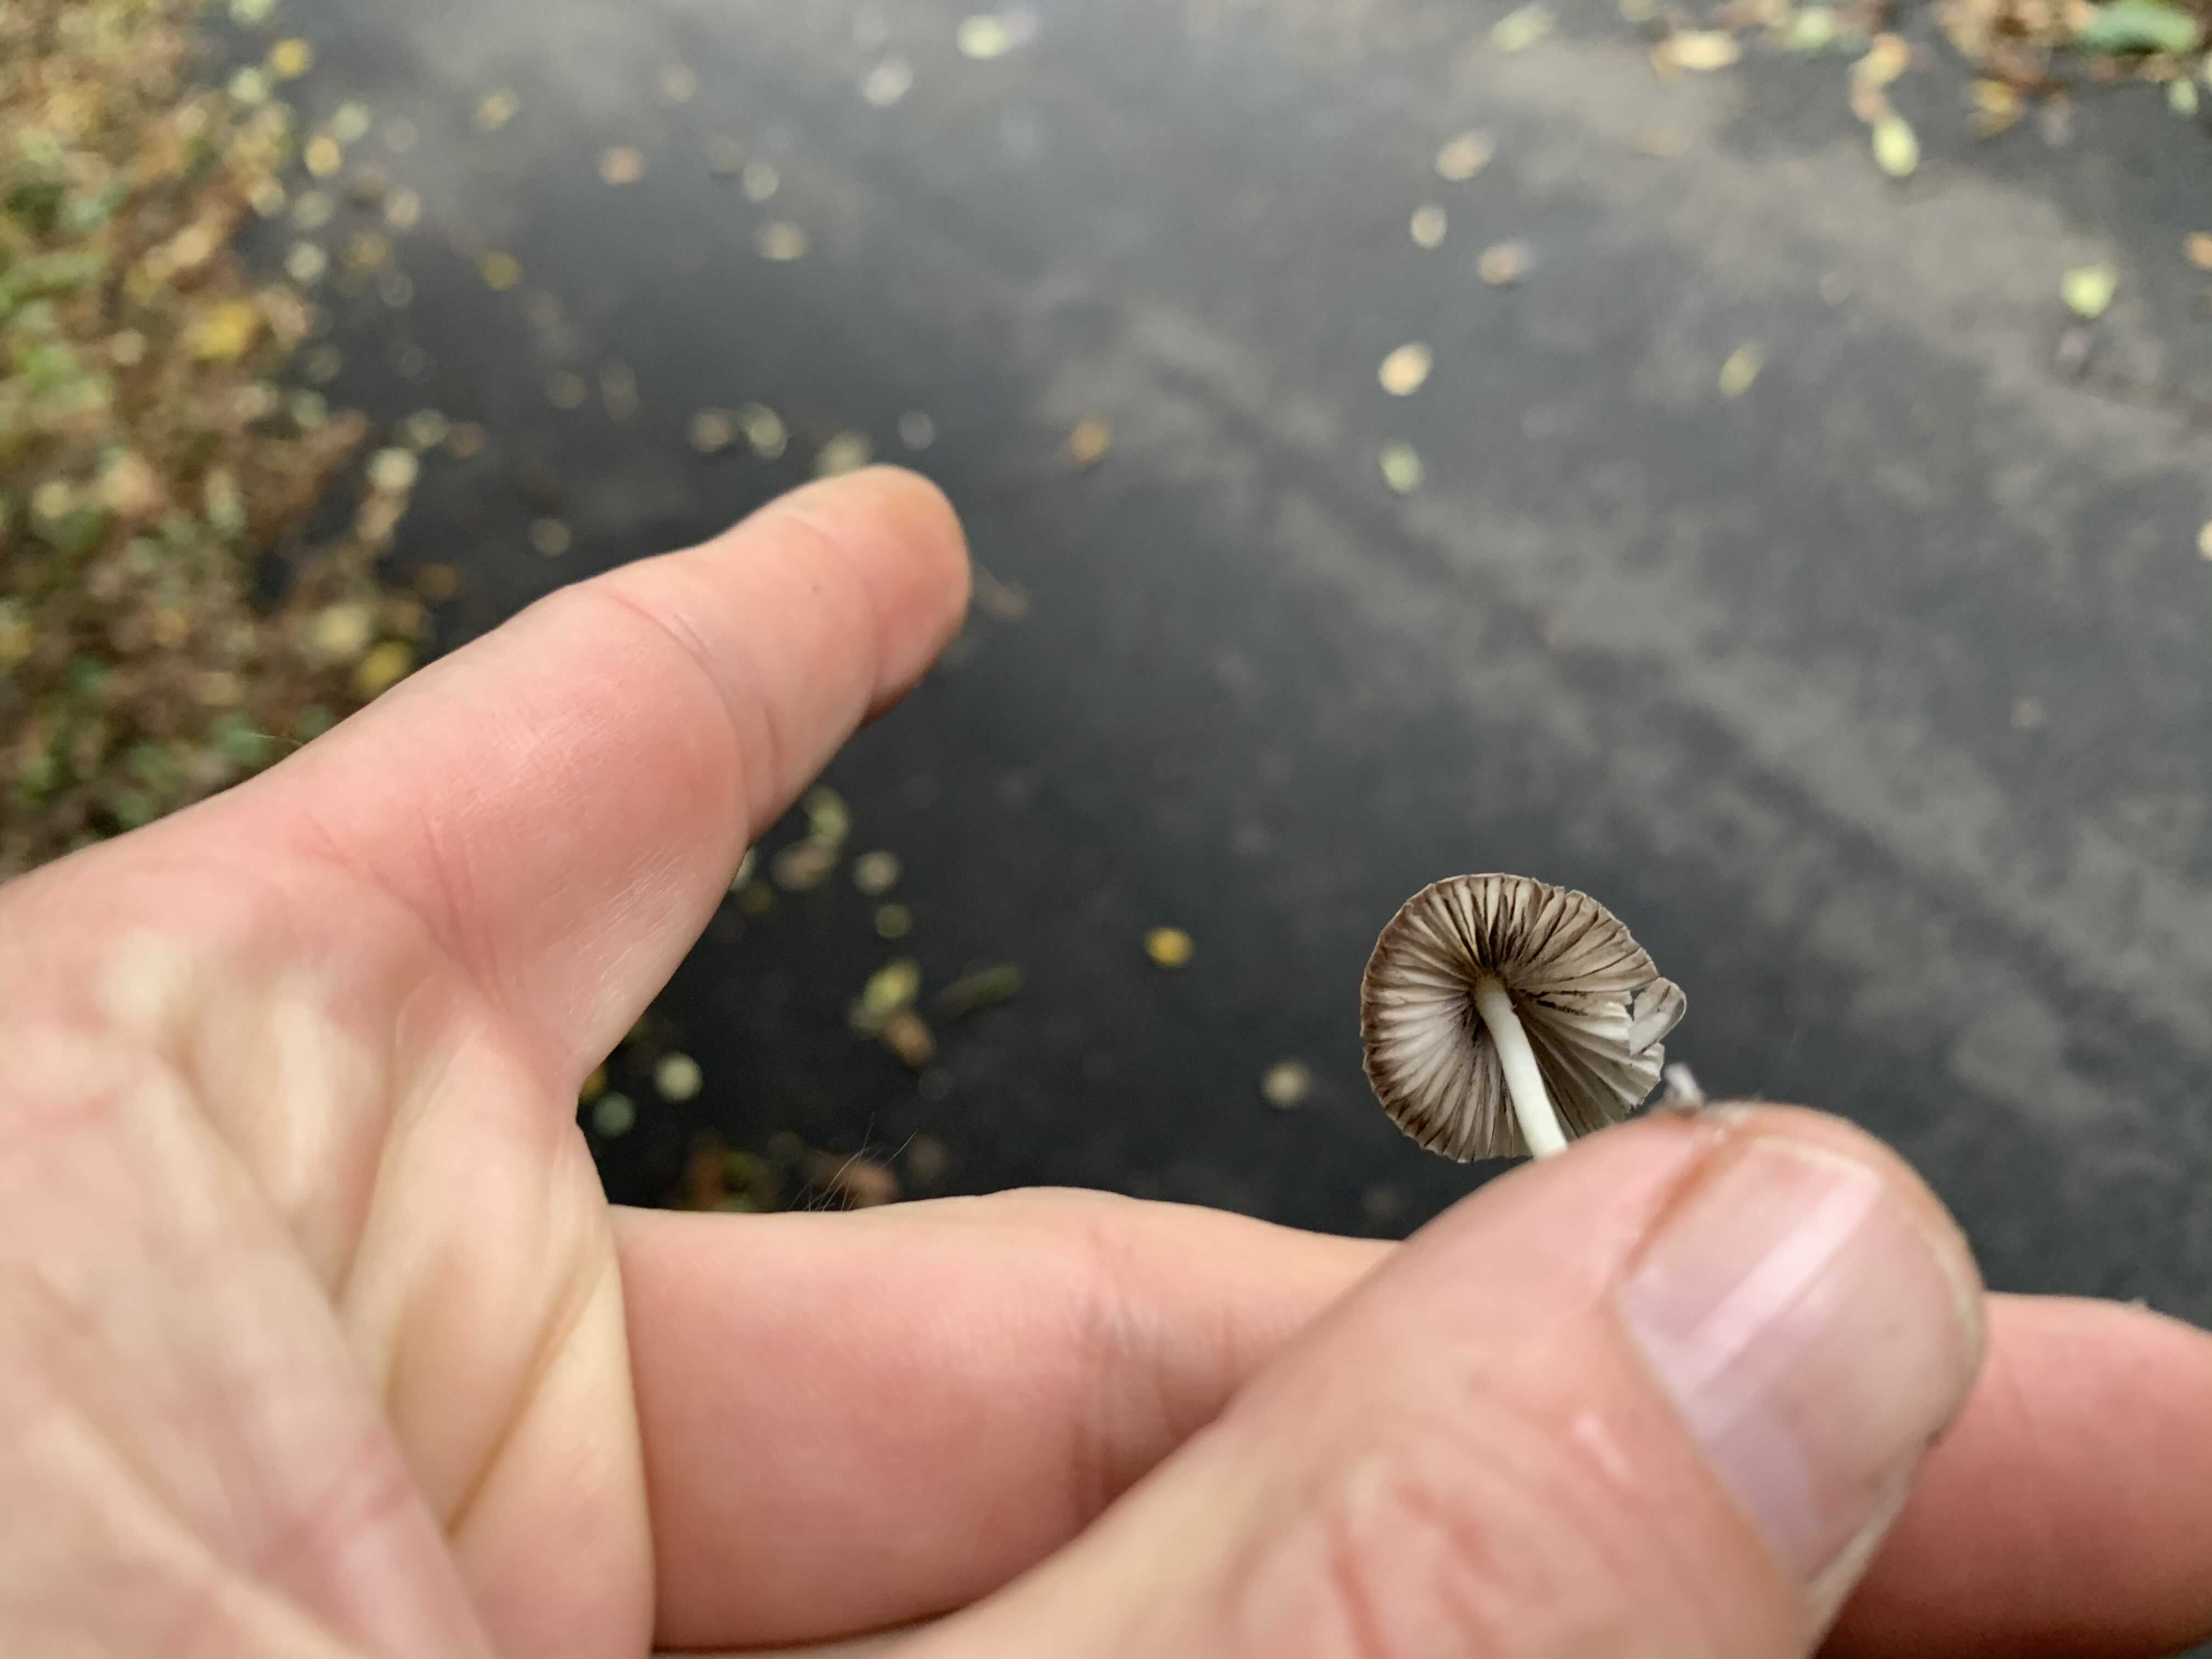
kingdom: Fungi
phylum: Basidiomycota
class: Agaricomycetes
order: Agaricales
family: Psathyrellaceae
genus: Coprinellus
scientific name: Coprinellus disseminatus
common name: bredsået blækhat
